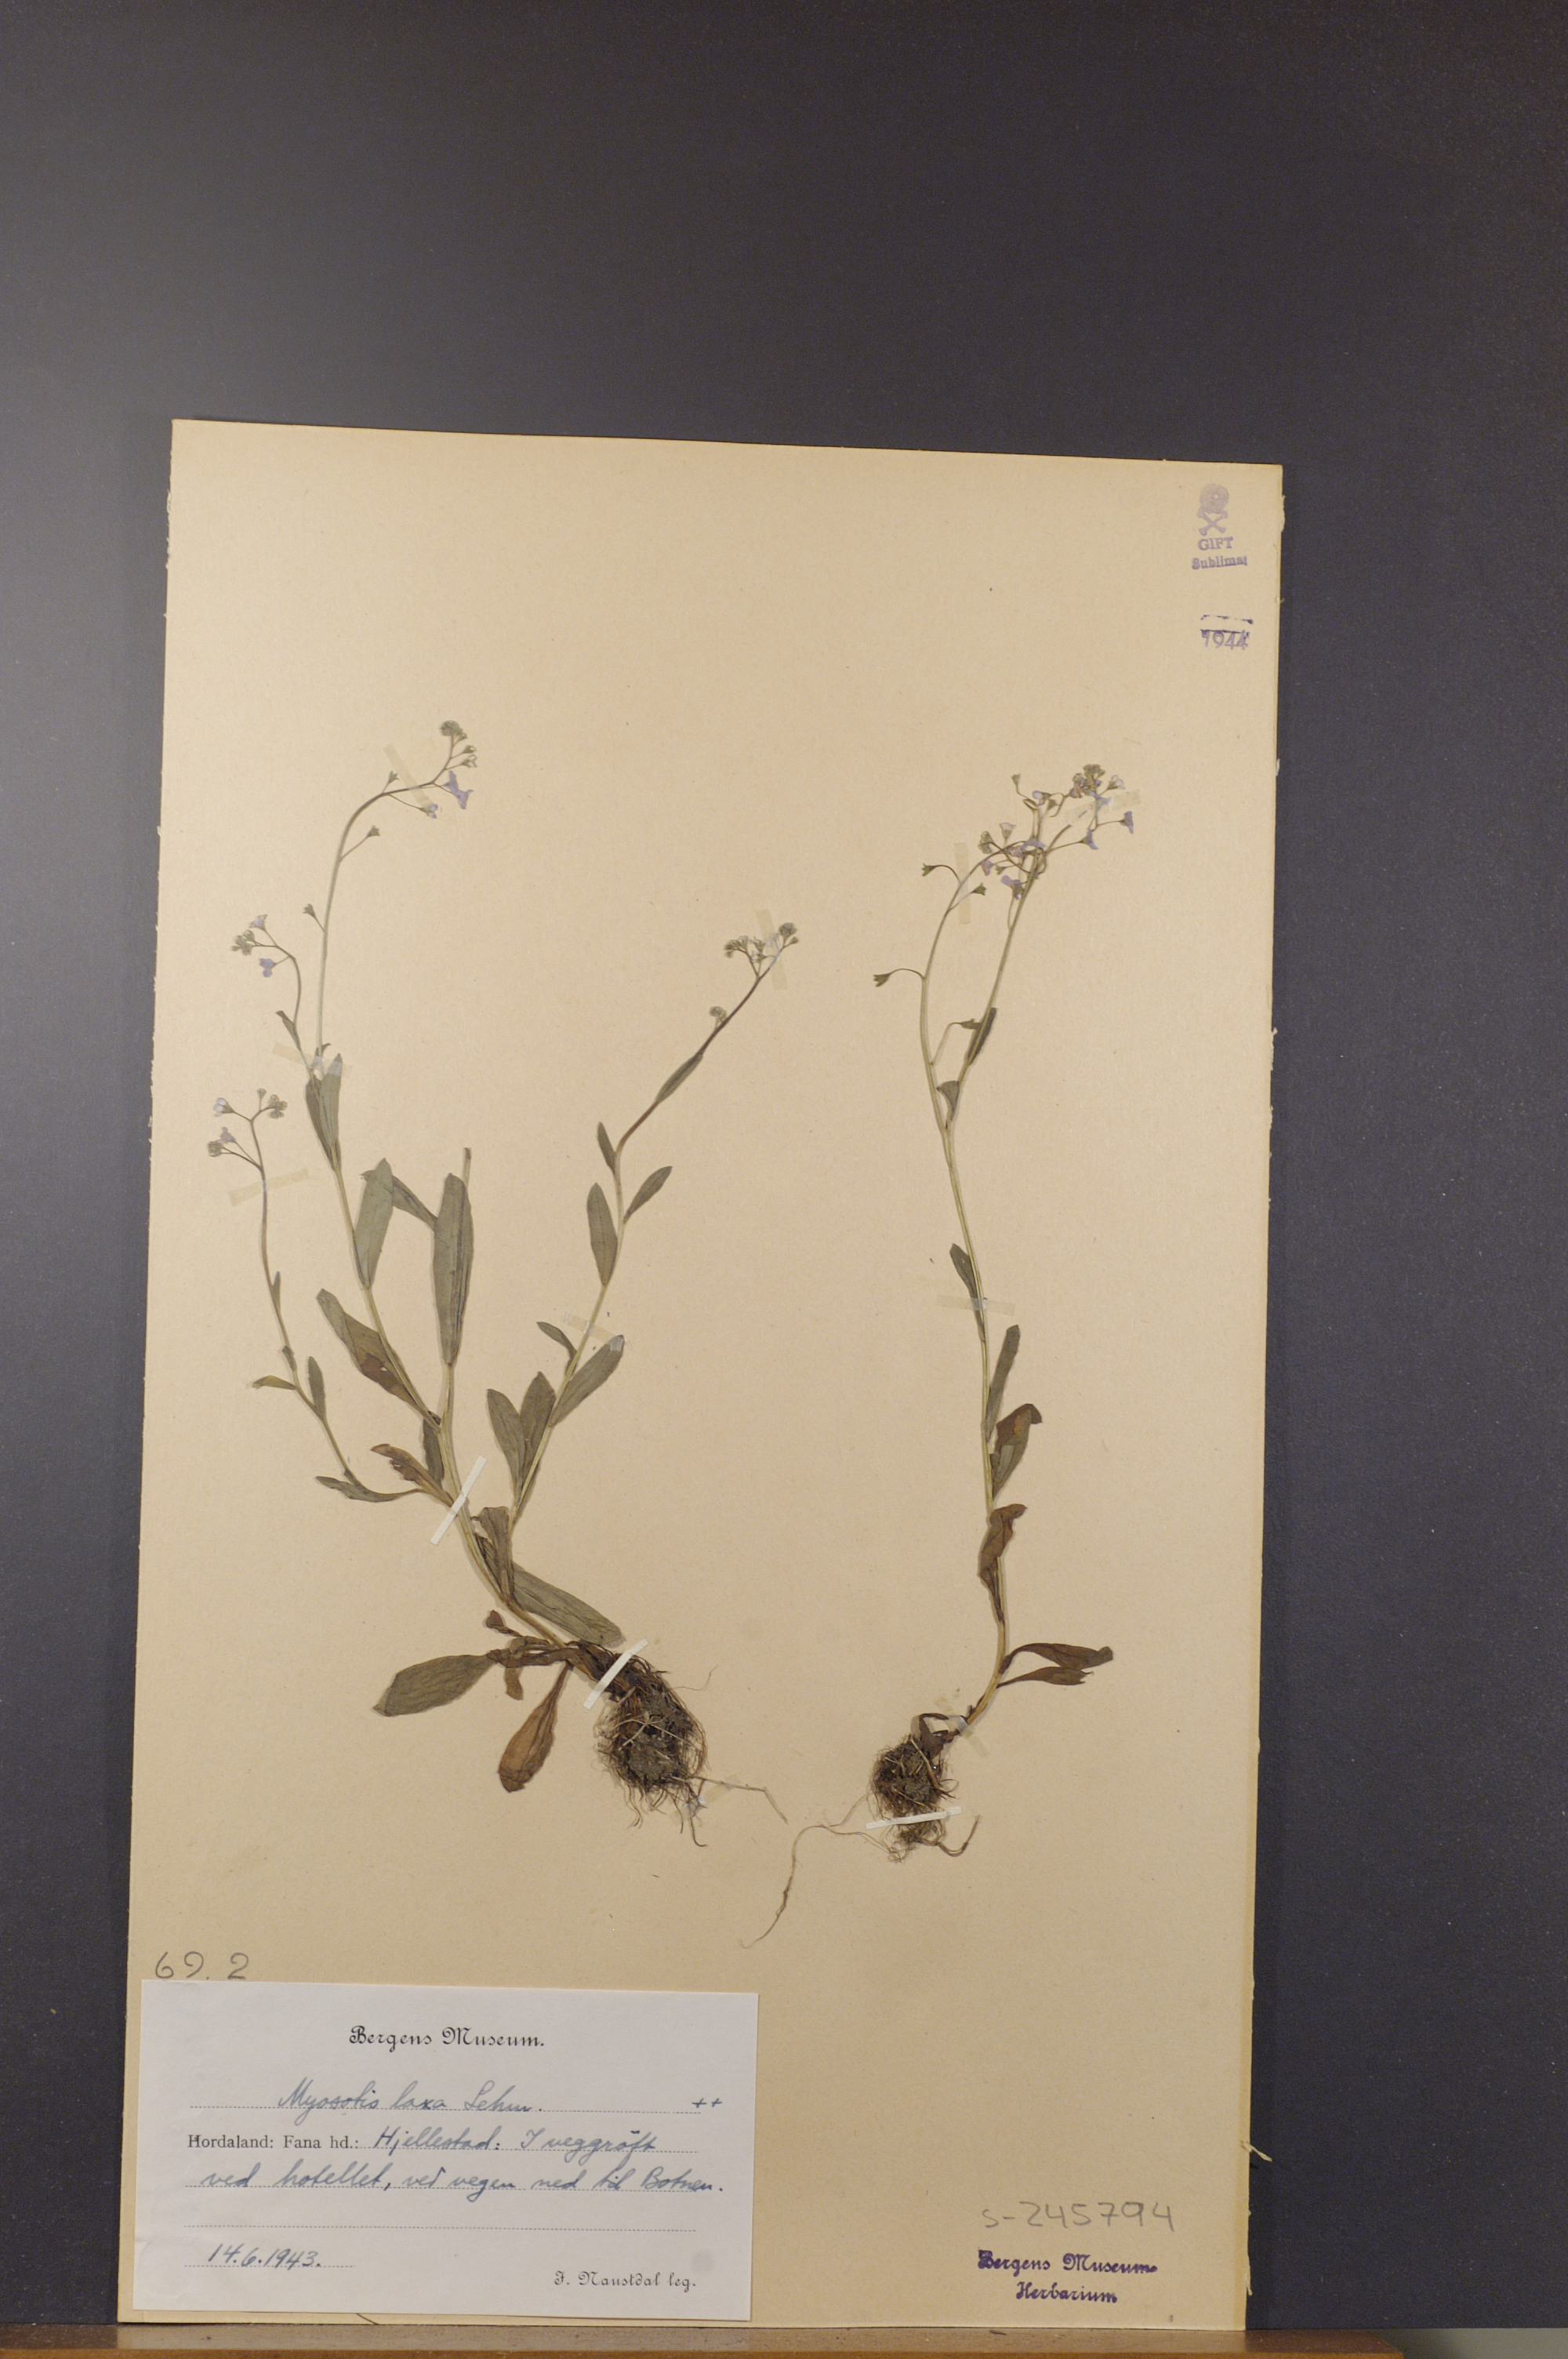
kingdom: Plantae
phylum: Tracheophyta
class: Magnoliopsida
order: Boraginales
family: Boraginaceae
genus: Myosotis
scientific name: Myosotis laxa
